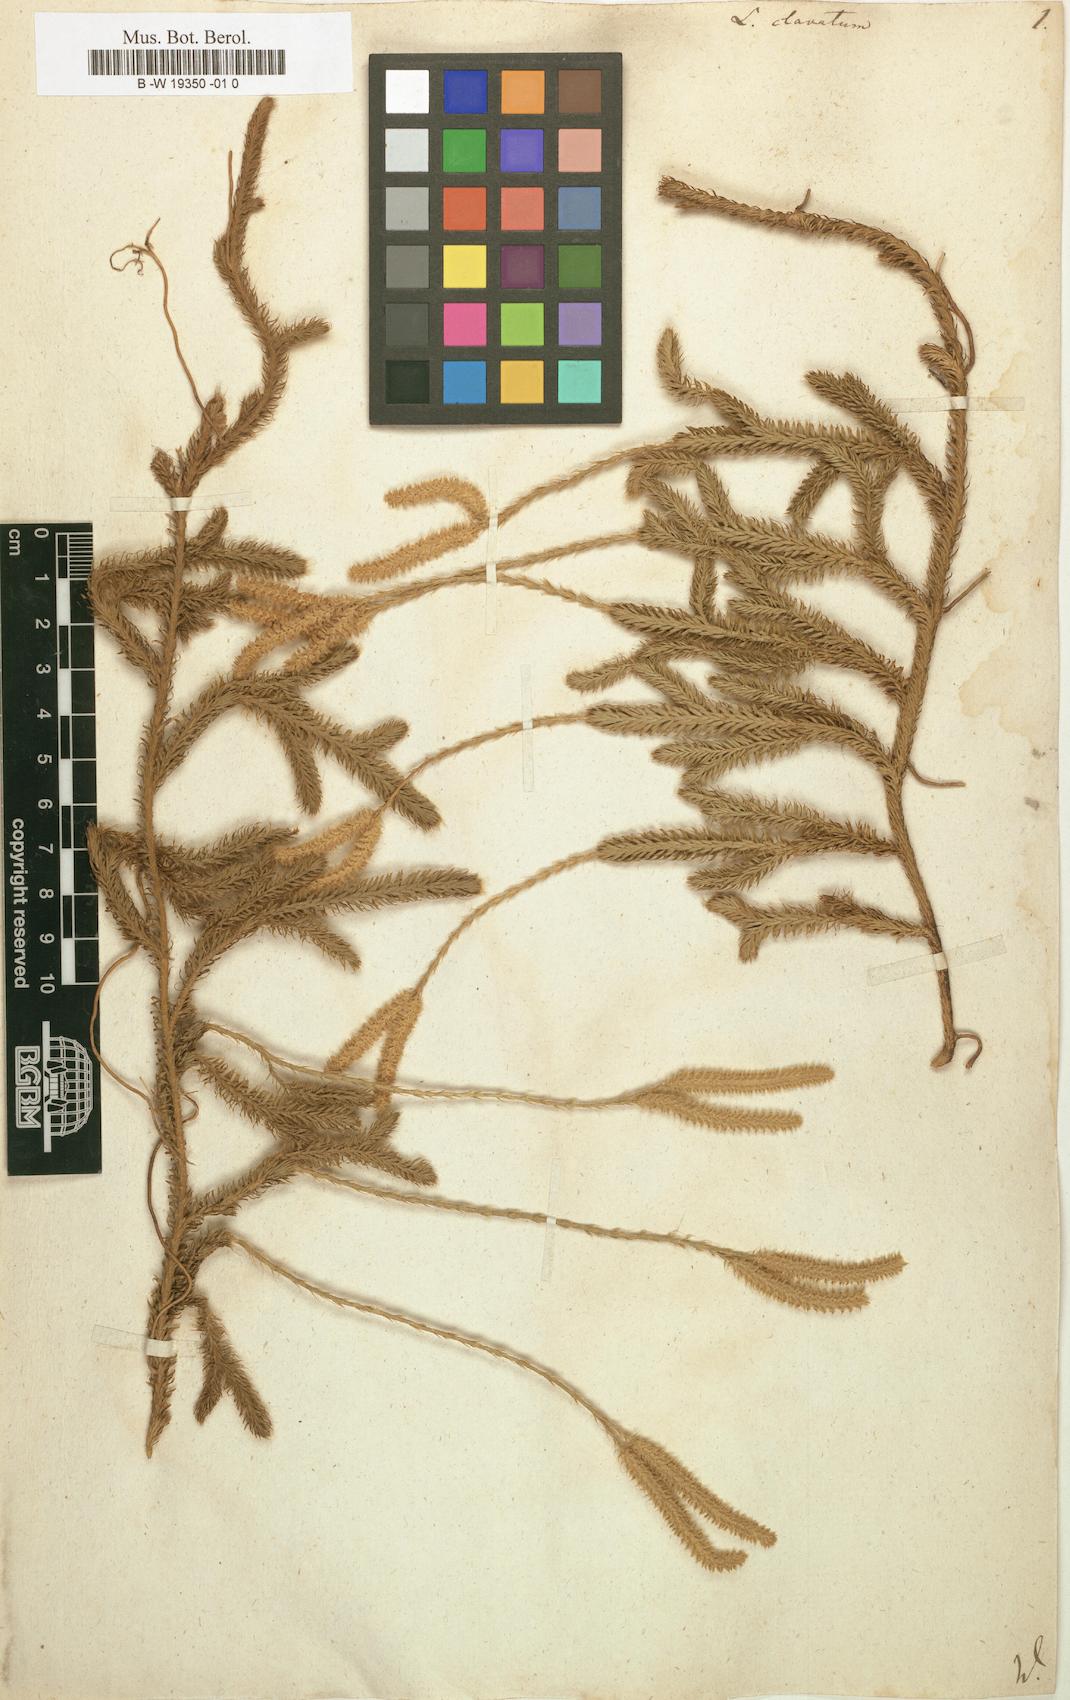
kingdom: Plantae
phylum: Tracheophyta
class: Lycopodiopsida
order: Lycopodiales
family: Lycopodiaceae
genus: Lycopodium
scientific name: Lycopodium clavatum
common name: Stag's-horn clubmoss
